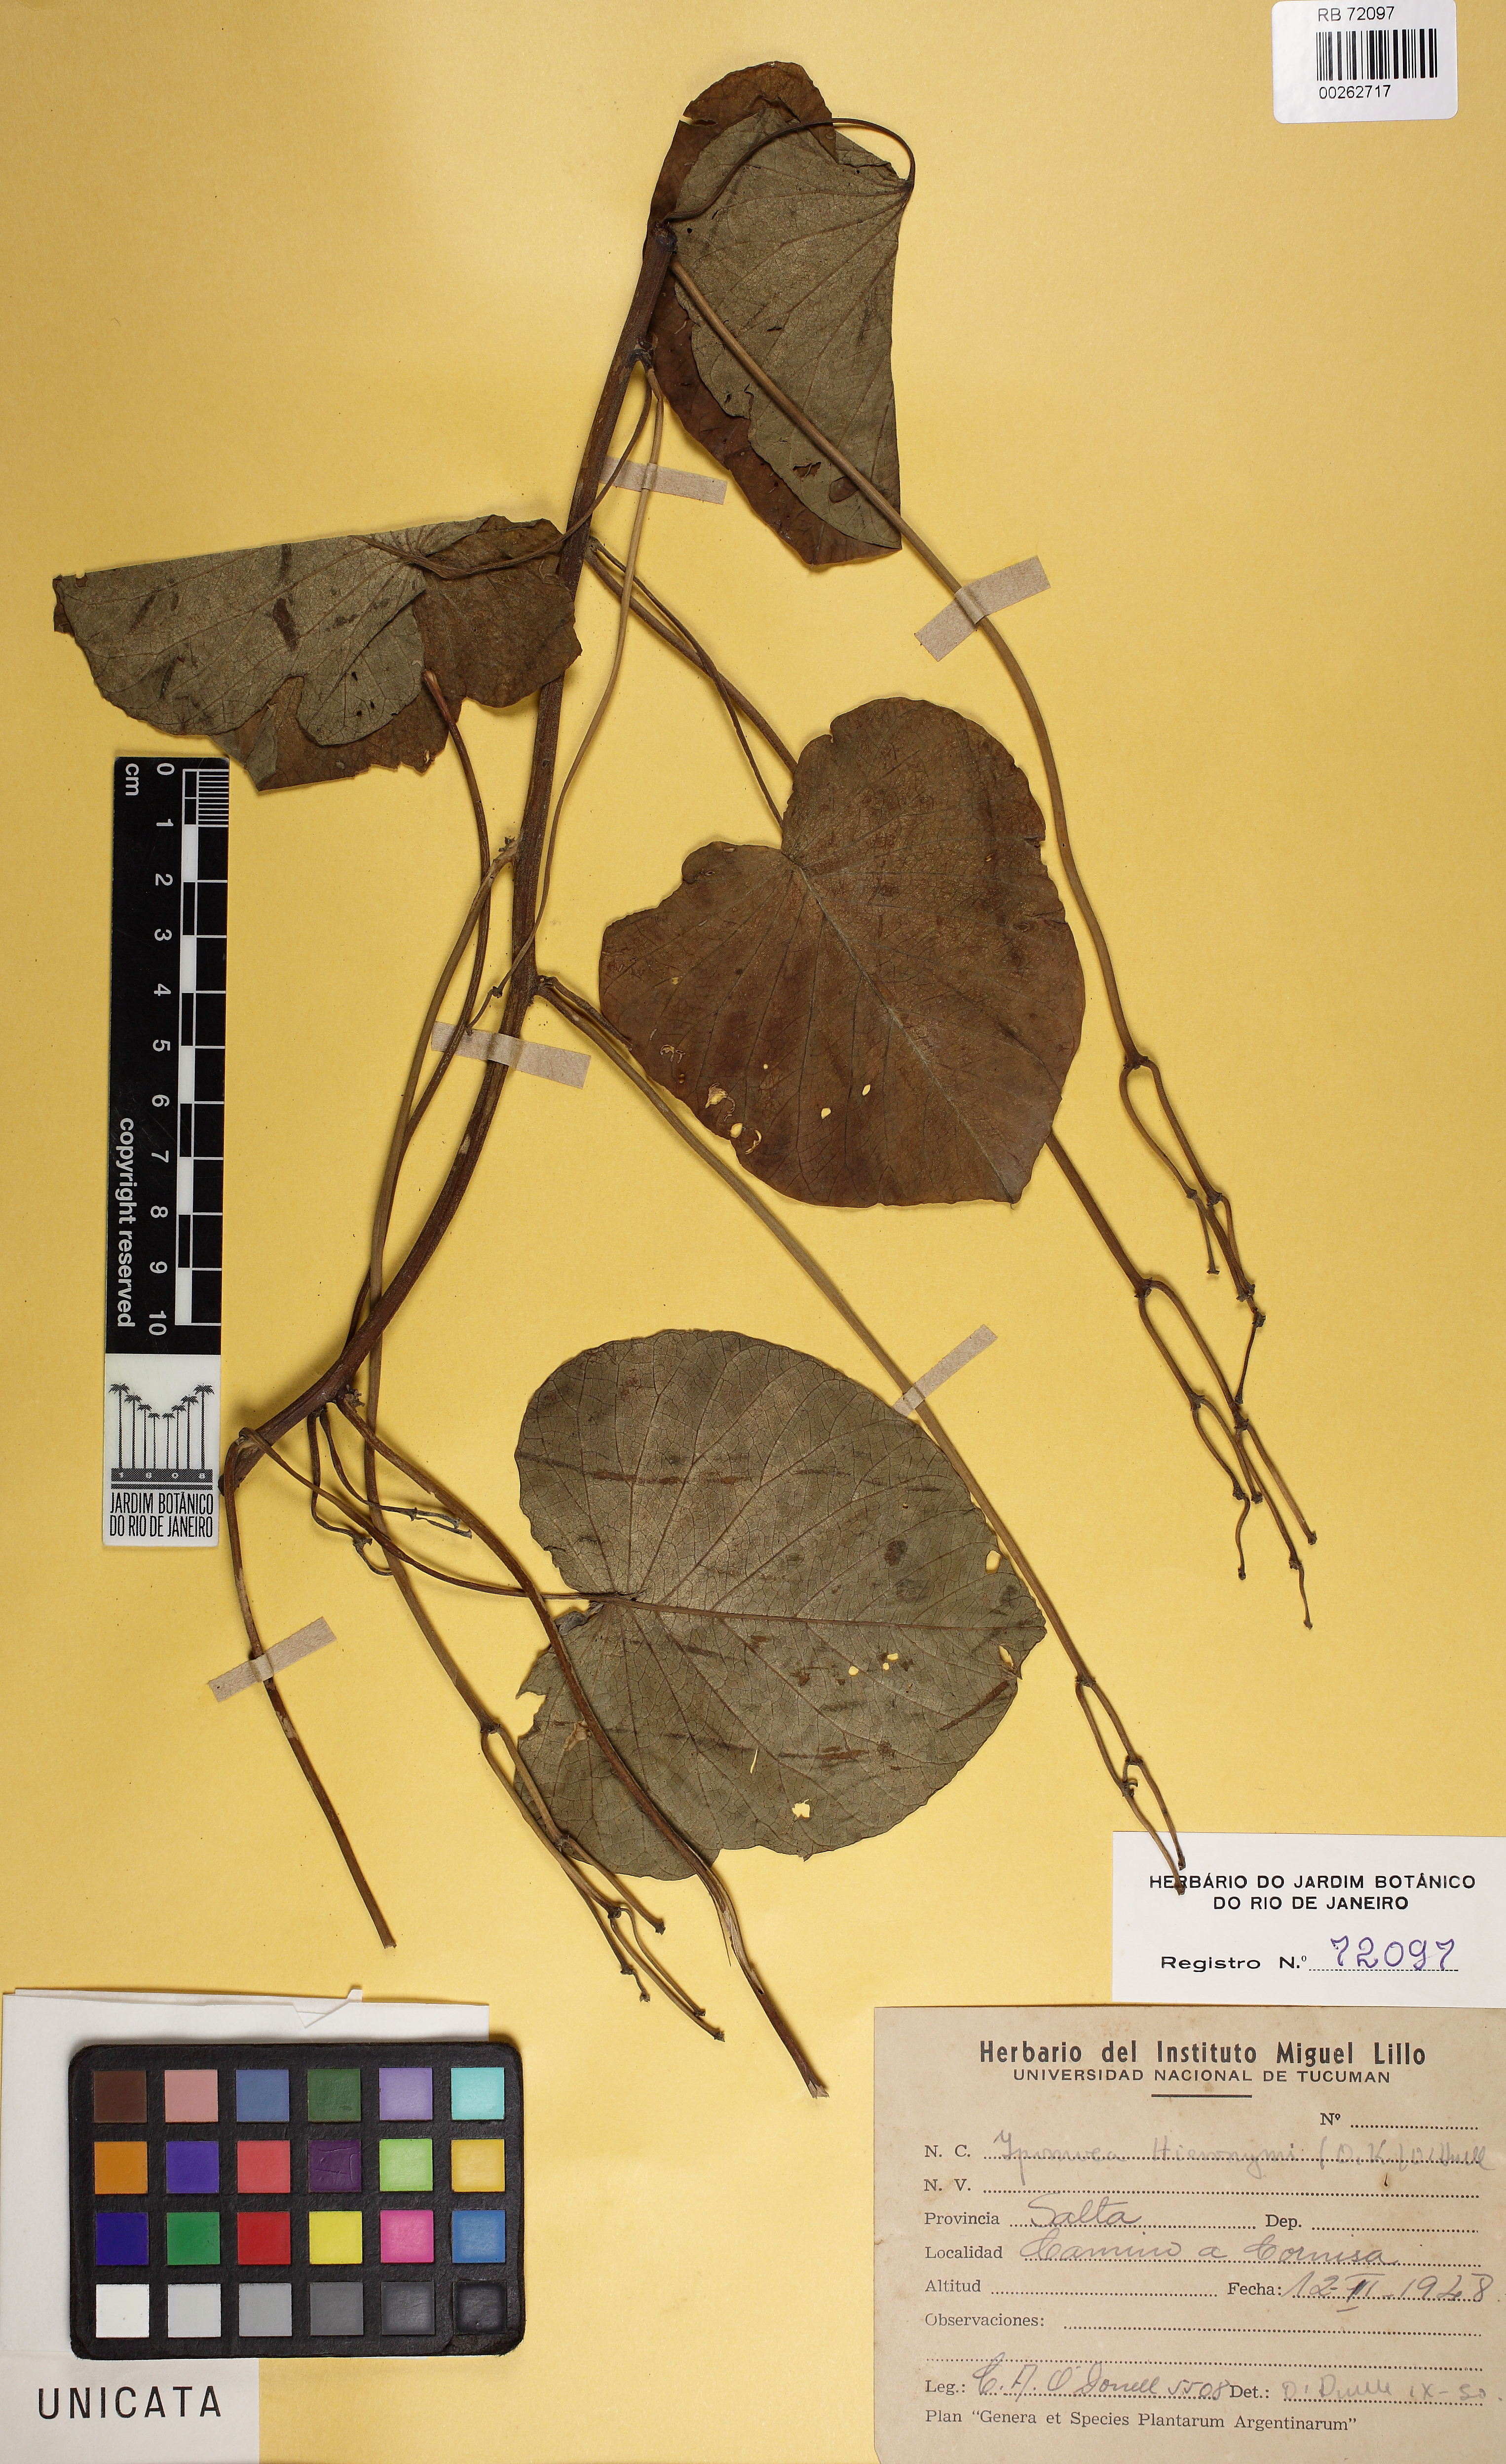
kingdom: Plantae
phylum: Tracheophyta
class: Magnoliopsida
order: Solanales
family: Convolvulaceae
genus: Ipomoea
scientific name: Ipomoea hieronymi
